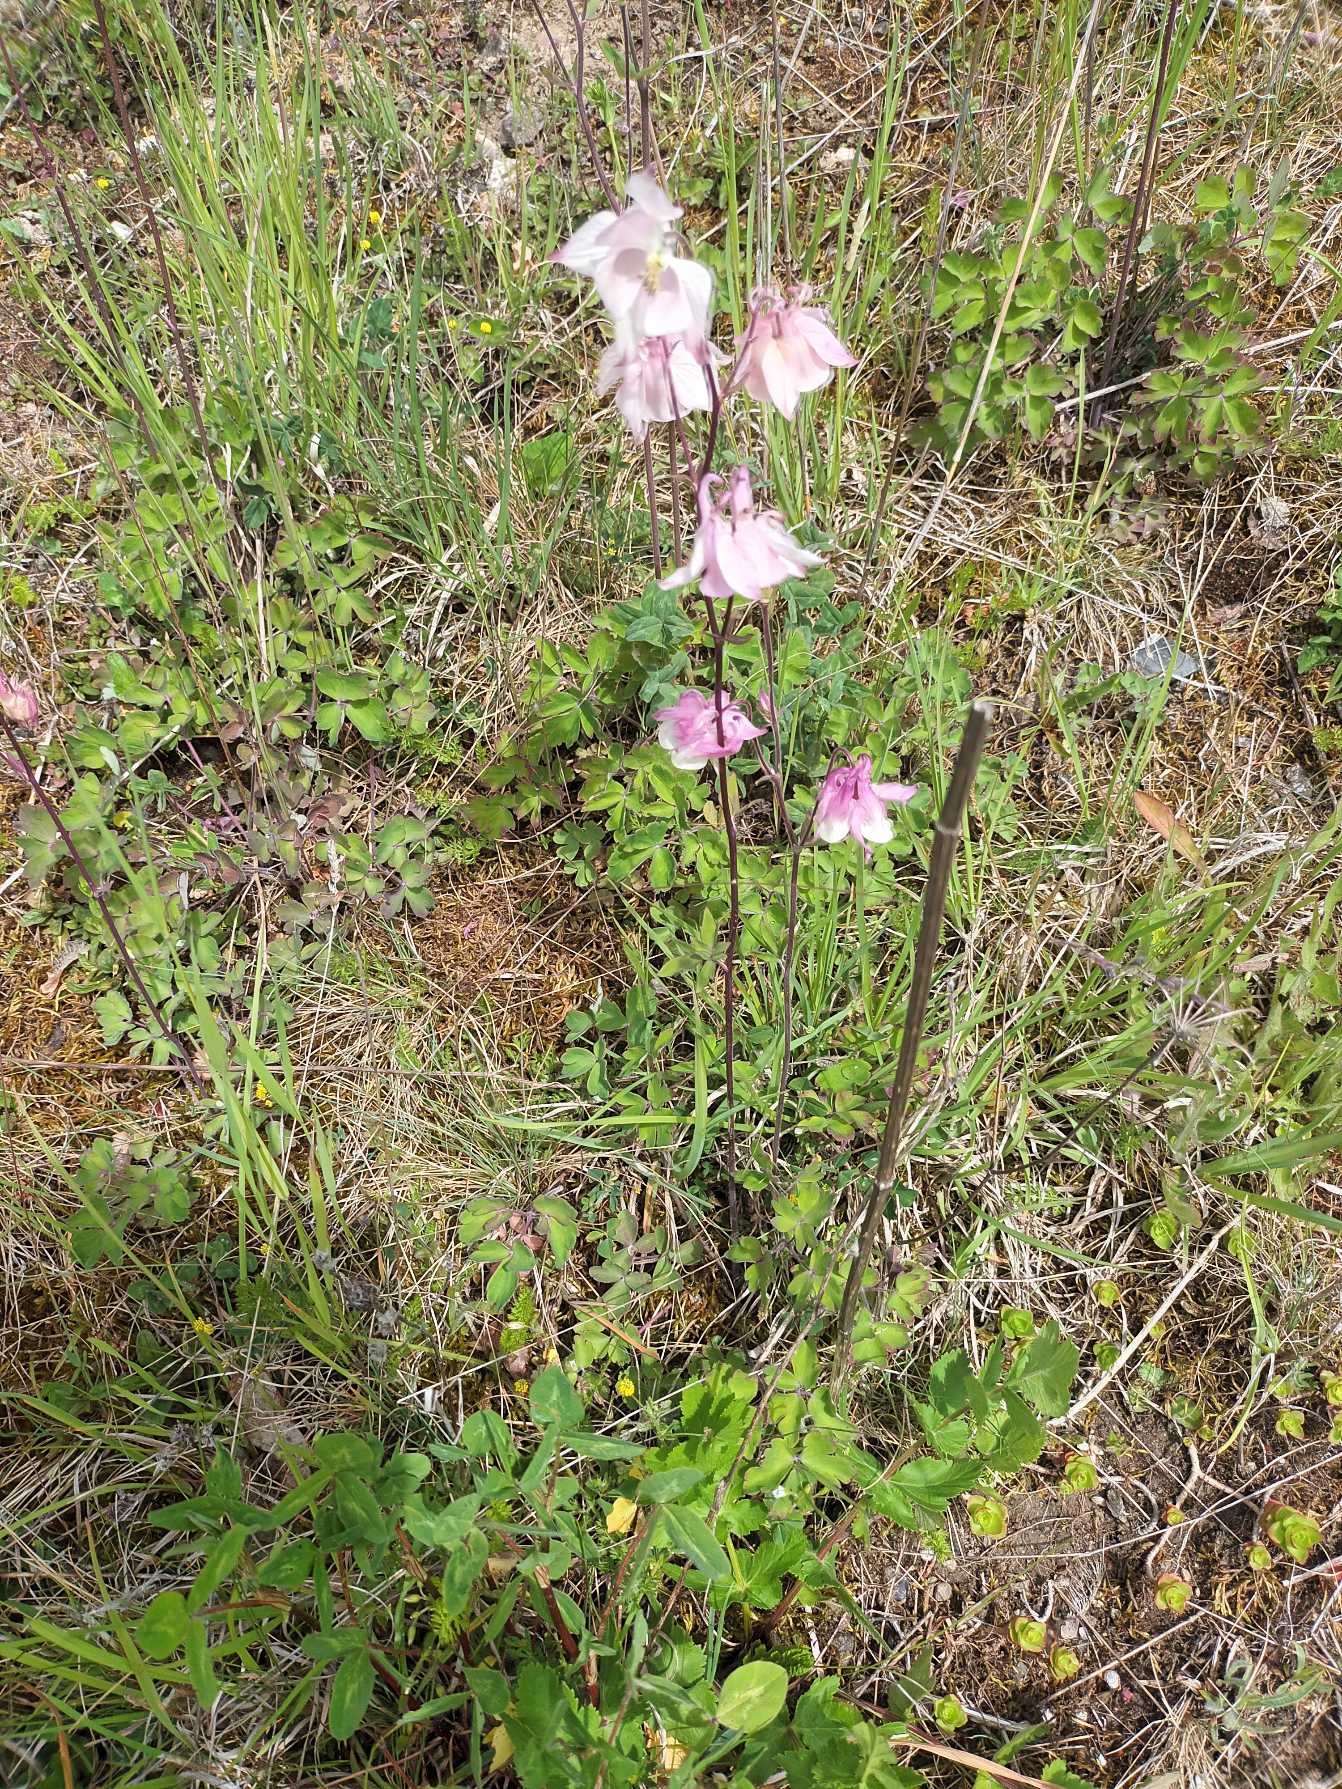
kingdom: Plantae
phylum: Tracheophyta
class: Magnoliopsida
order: Ranunculales
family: Ranunculaceae
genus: Aquilegia
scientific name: Aquilegia vulgaris
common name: Akeleje
